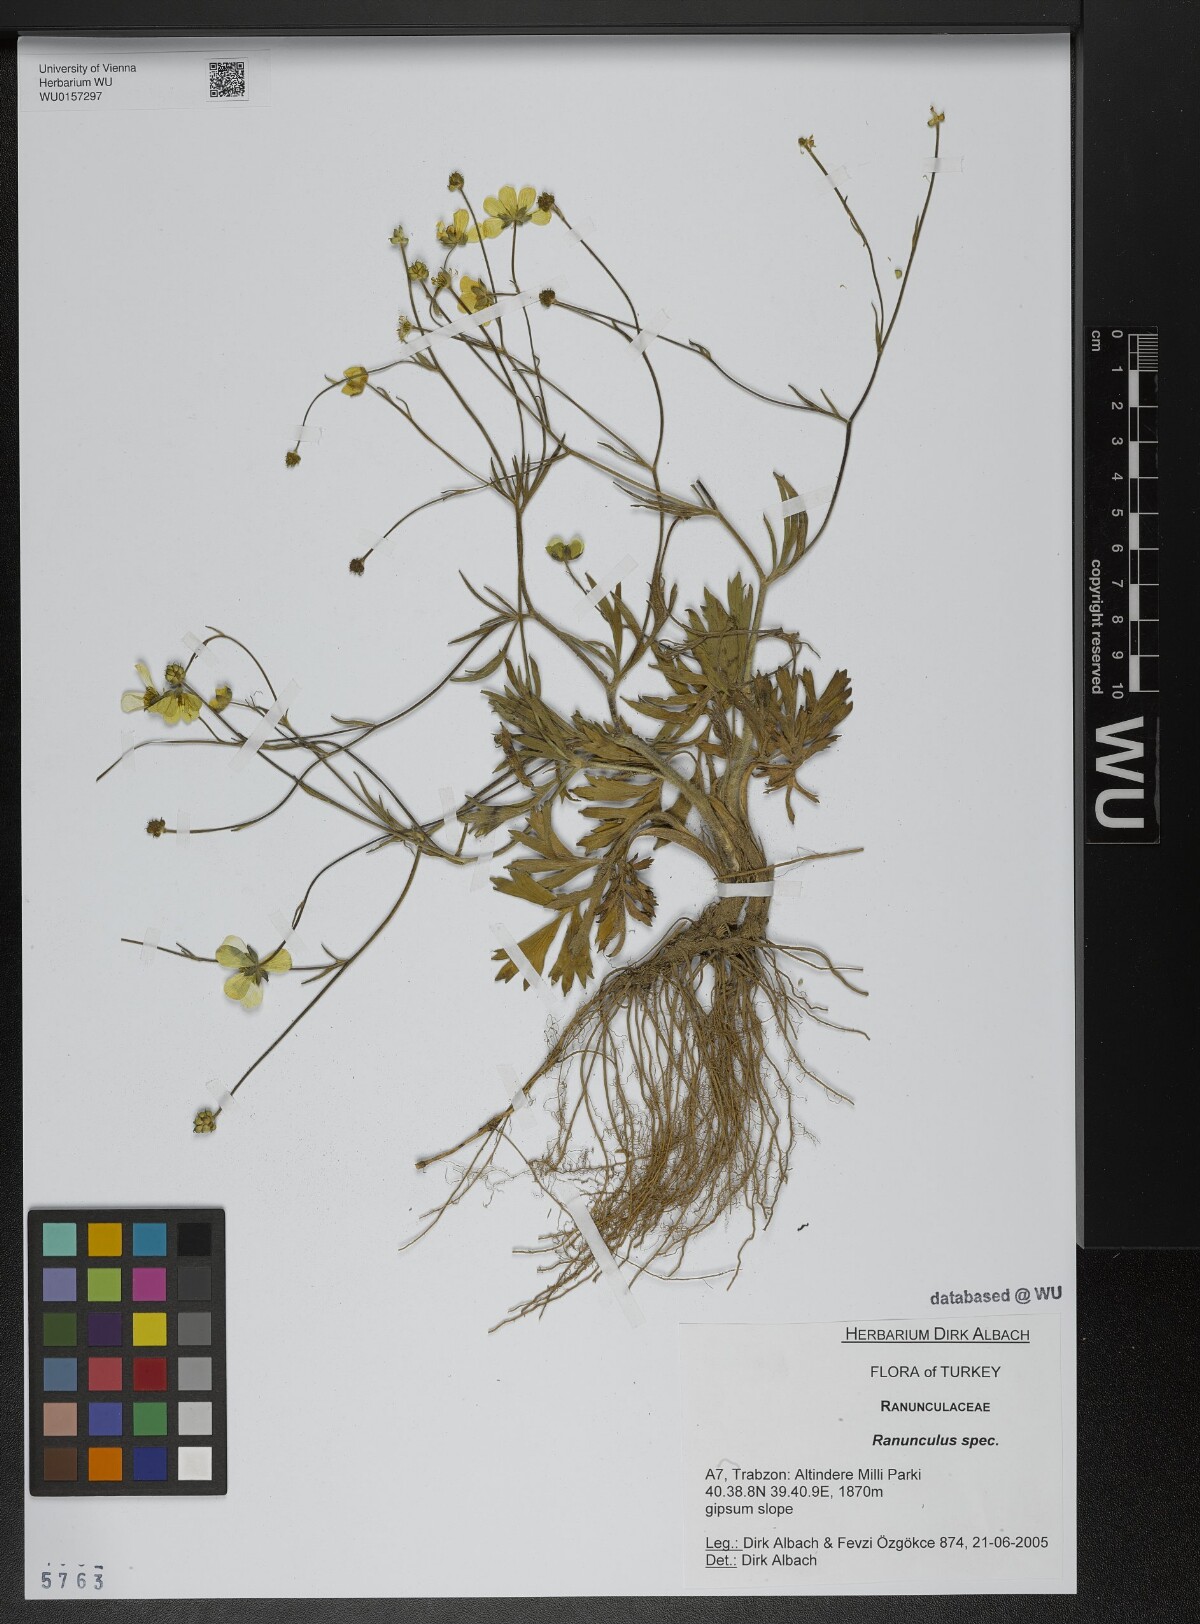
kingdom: Plantae
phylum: Tracheophyta
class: Magnoliopsida
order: Ranunculales
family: Ranunculaceae
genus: Ranunculus
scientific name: Ranunculus
